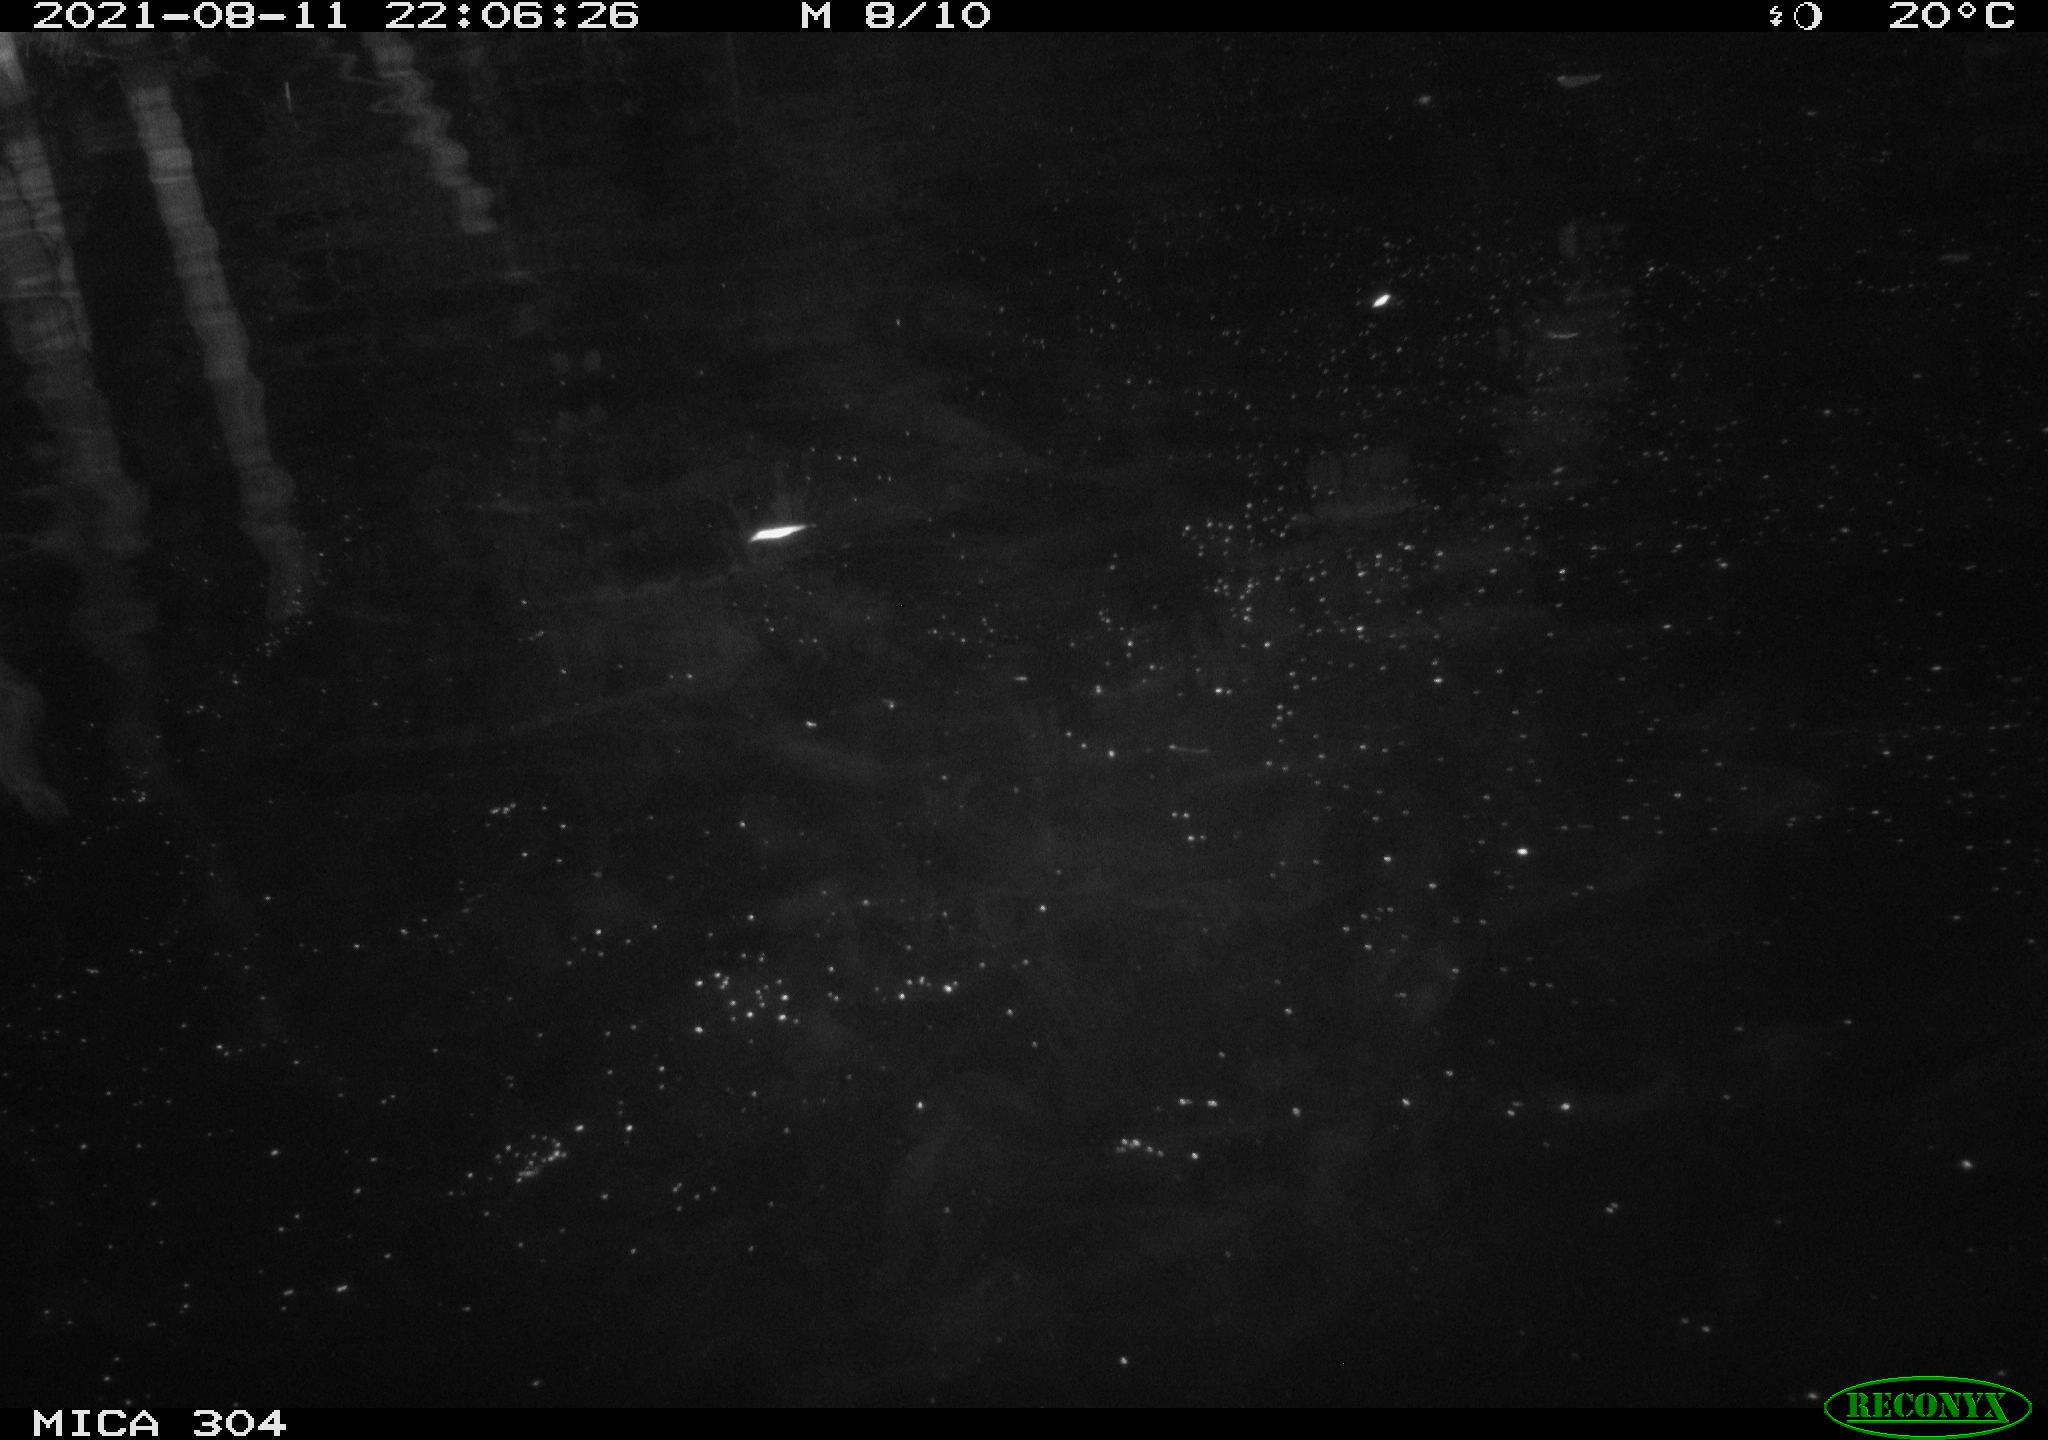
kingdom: Animalia
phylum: Chordata
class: Aves
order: Anseriformes
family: Anatidae
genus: Anas
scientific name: Anas platyrhynchos
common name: Mallard
